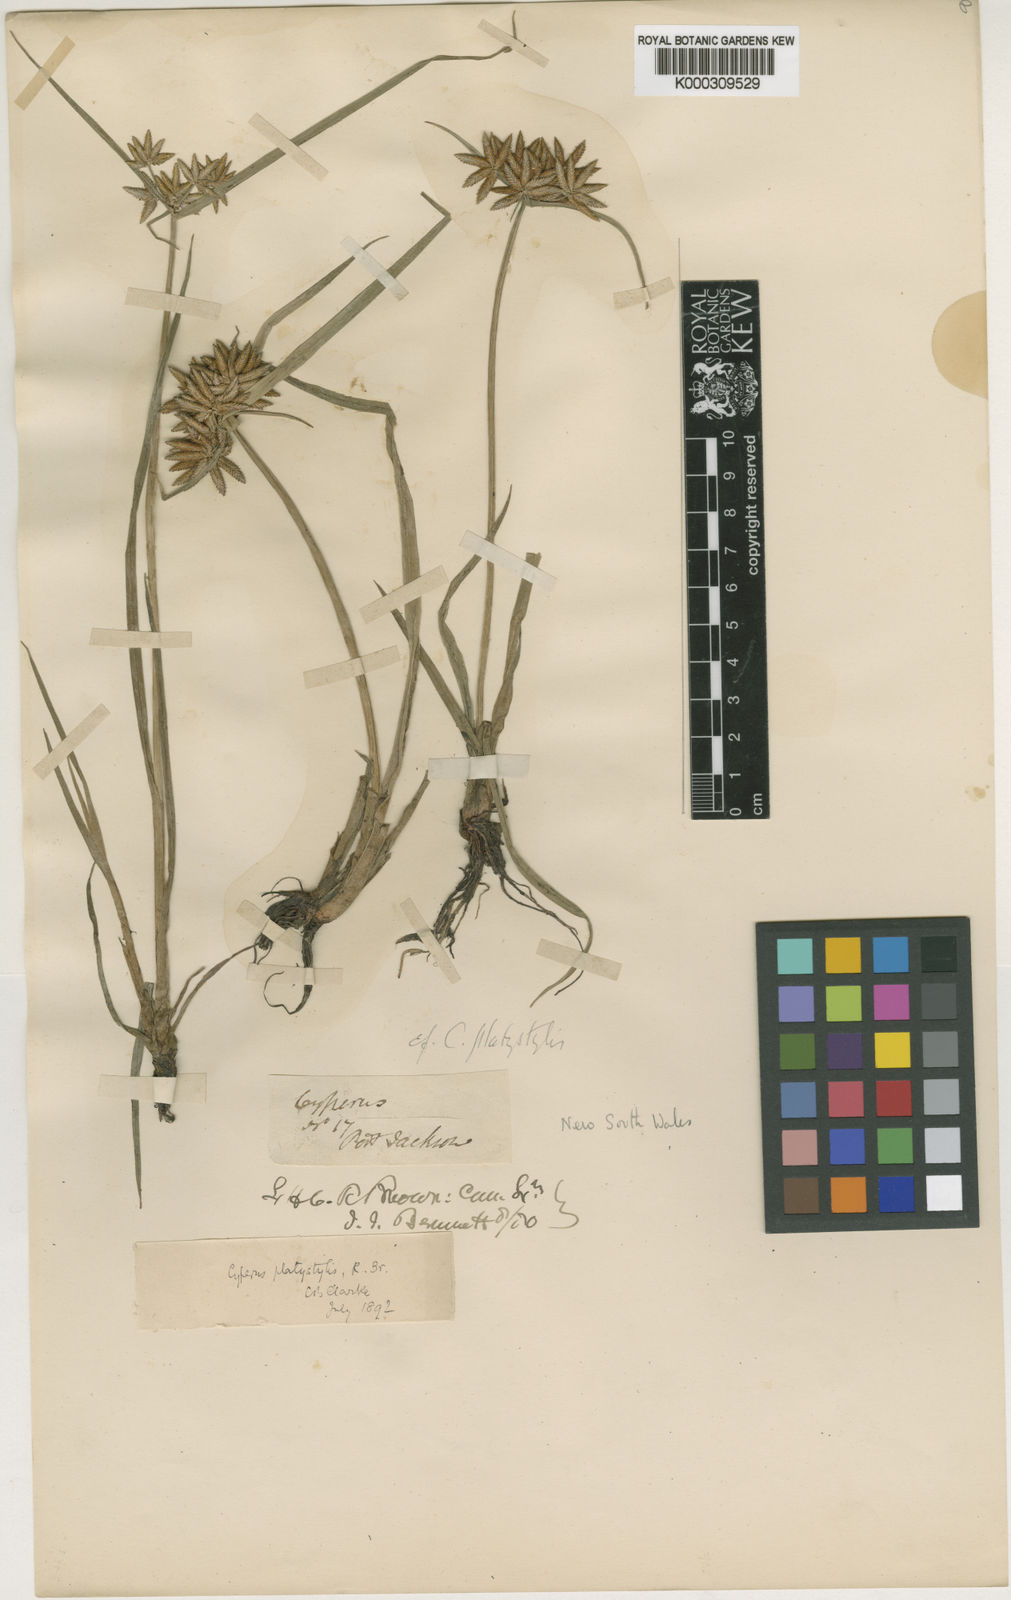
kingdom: Plantae
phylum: Tracheophyta
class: Liliopsida
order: Poales
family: Cyperaceae
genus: Cyperus
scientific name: Cyperus platystylis
